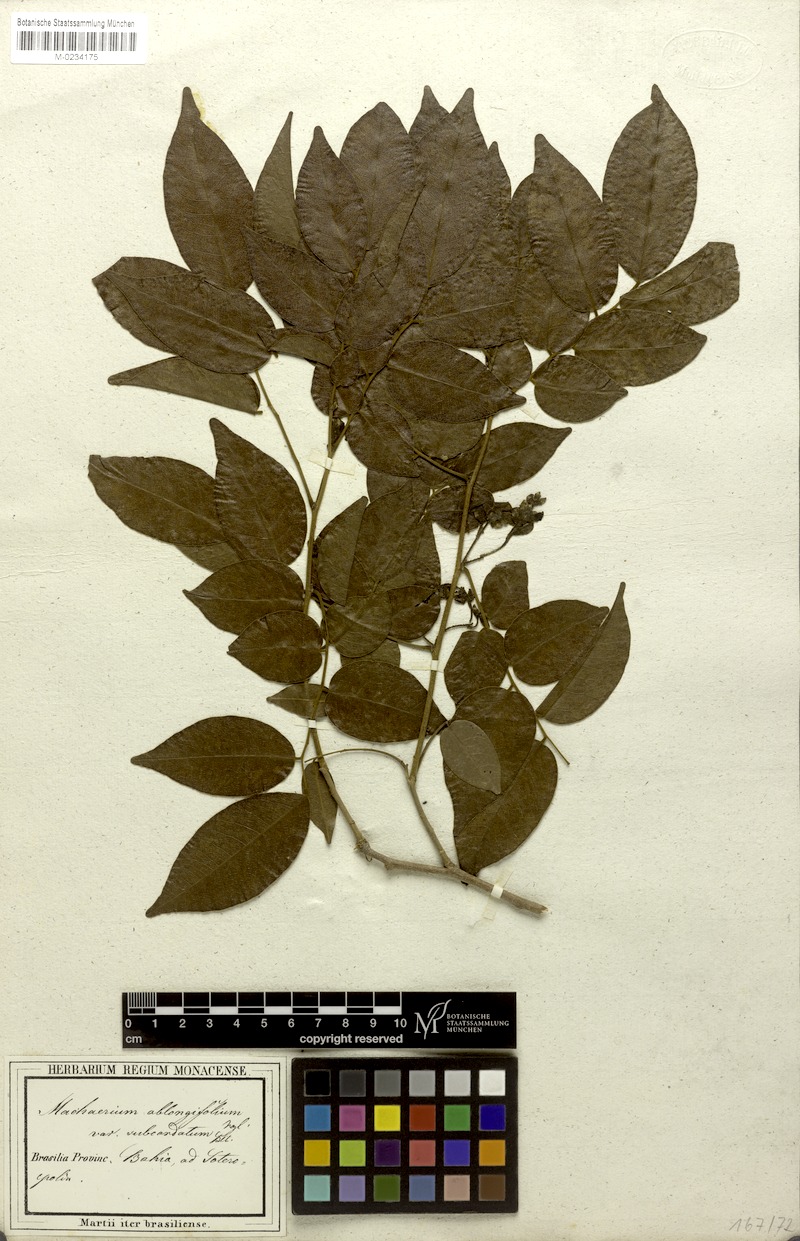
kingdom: Plantae
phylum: Tracheophyta
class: Magnoliopsida
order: Fabales
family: Fabaceae
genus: Machaerium
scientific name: Machaerium punctatum
